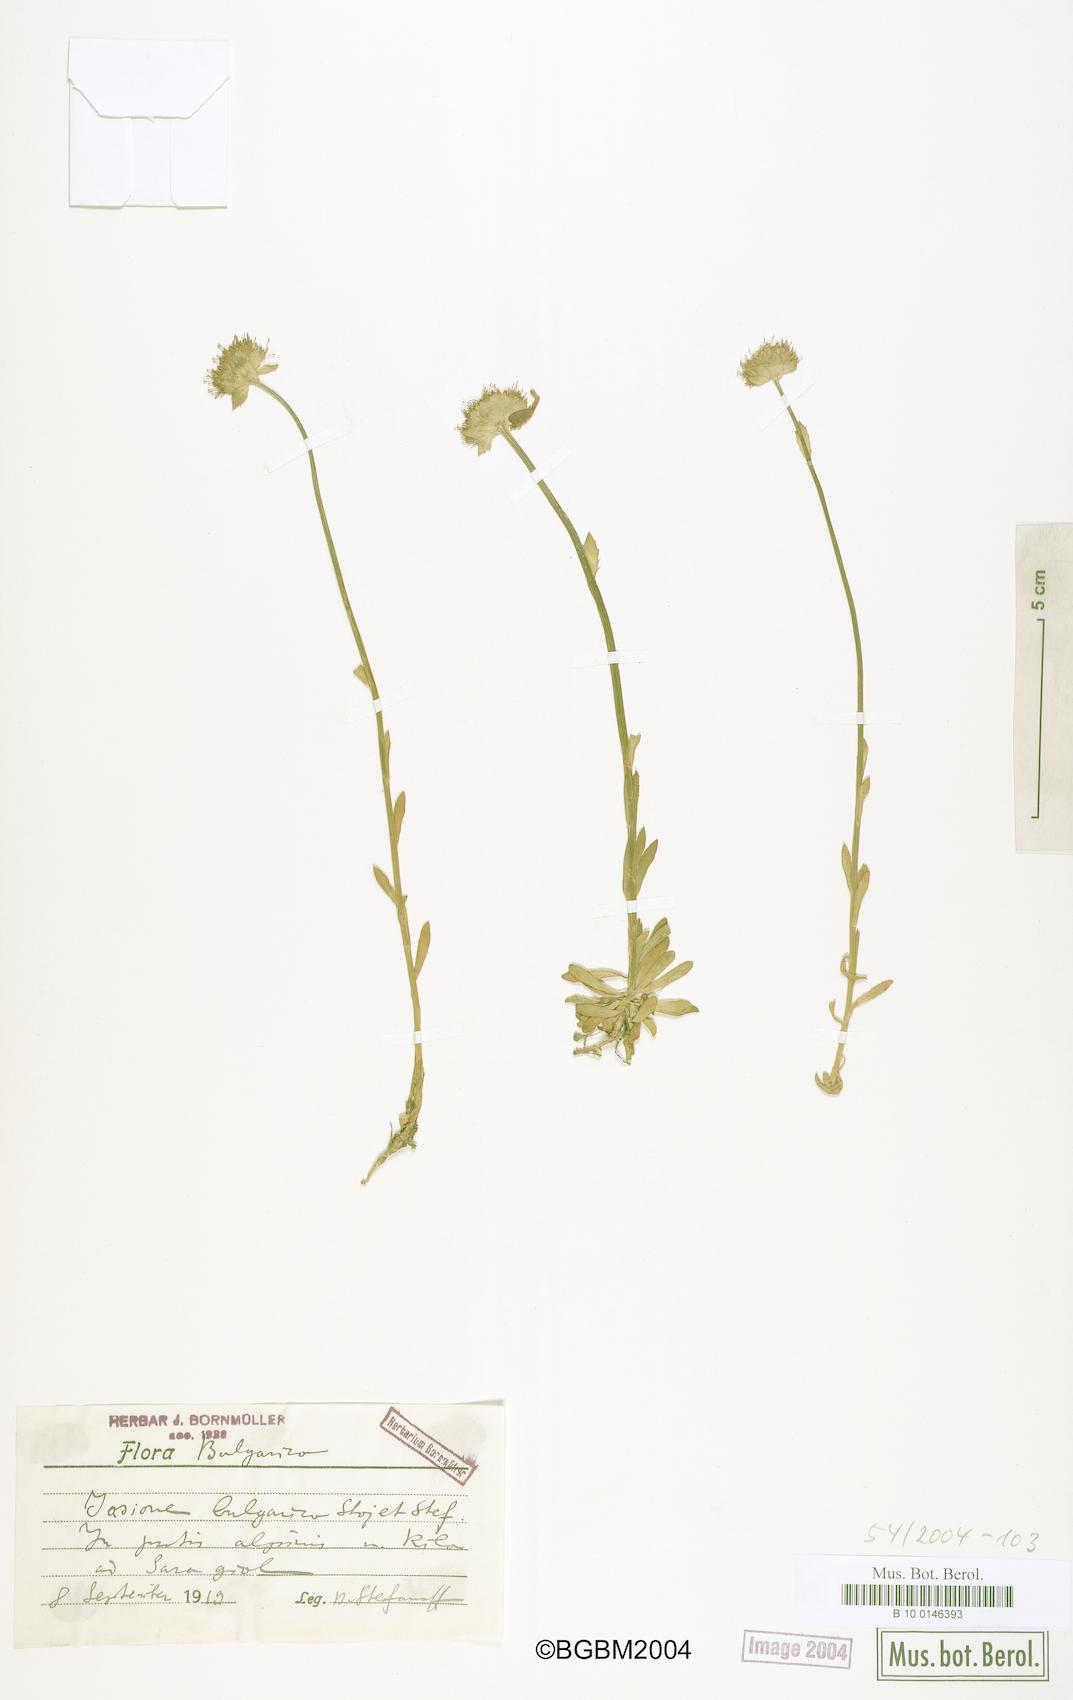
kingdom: Plantae
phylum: Tracheophyta
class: Magnoliopsida
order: Asterales
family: Campanulaceae
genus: Jasione
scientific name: Jasione bulgarica
